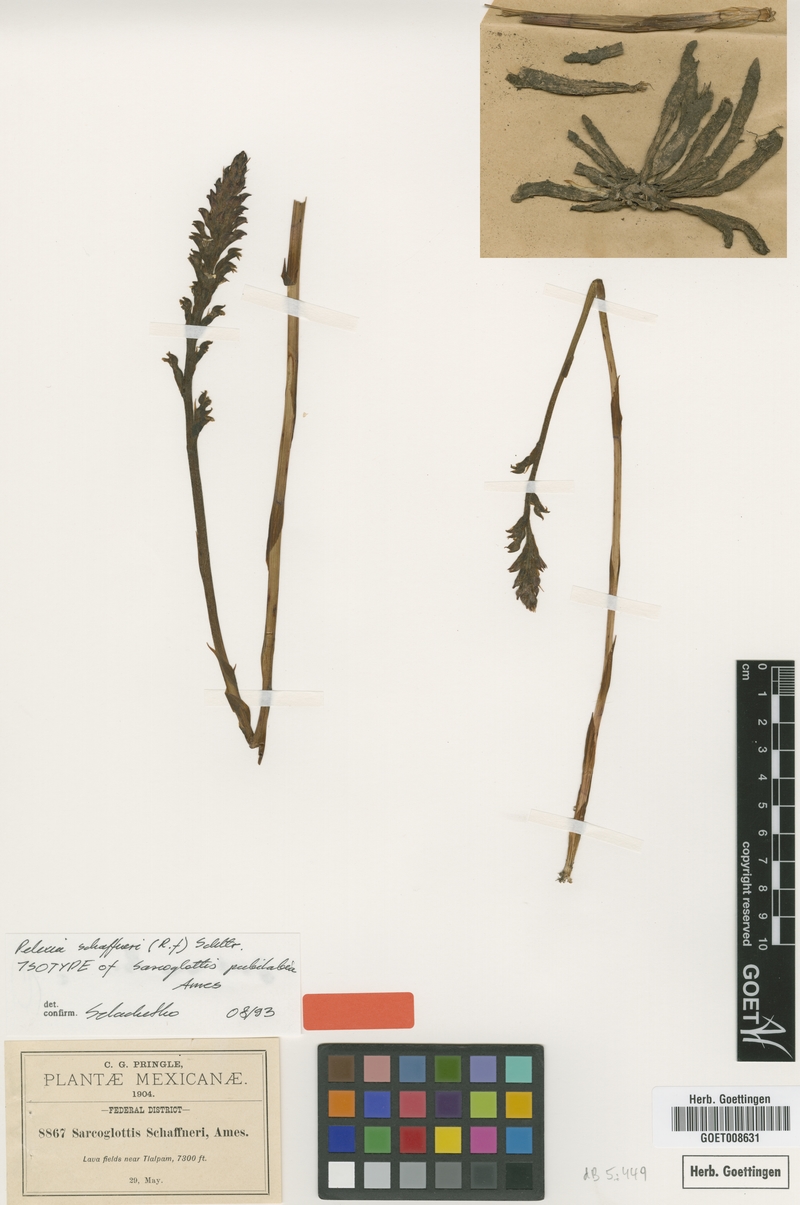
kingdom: Plantae
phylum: Tracheophyta
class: Liliopsida
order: Asparagales
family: Orchidaceae
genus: Sarcoglottis
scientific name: Sarcoglottis schaffneri
